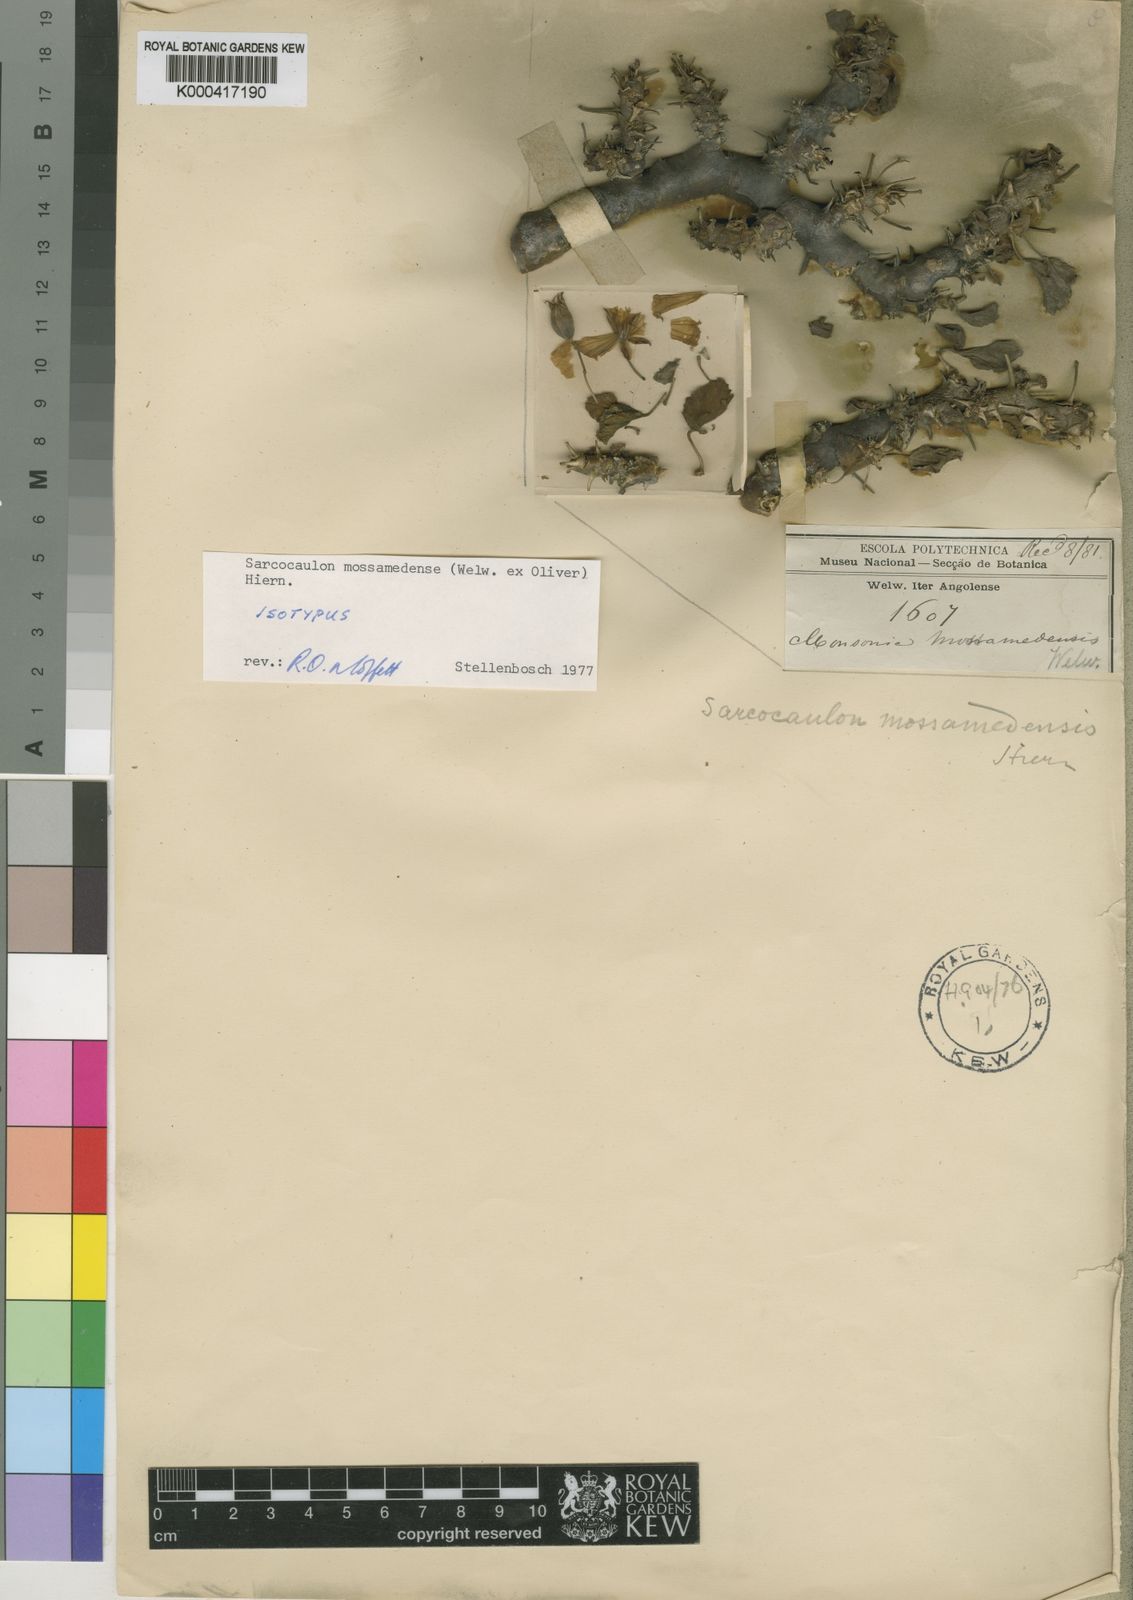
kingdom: Plantae
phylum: Tracheophyta
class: Magnoliopsida
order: Geraniales
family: Geraniaceae
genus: Monsonia
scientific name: Monsonia mossamedensis
